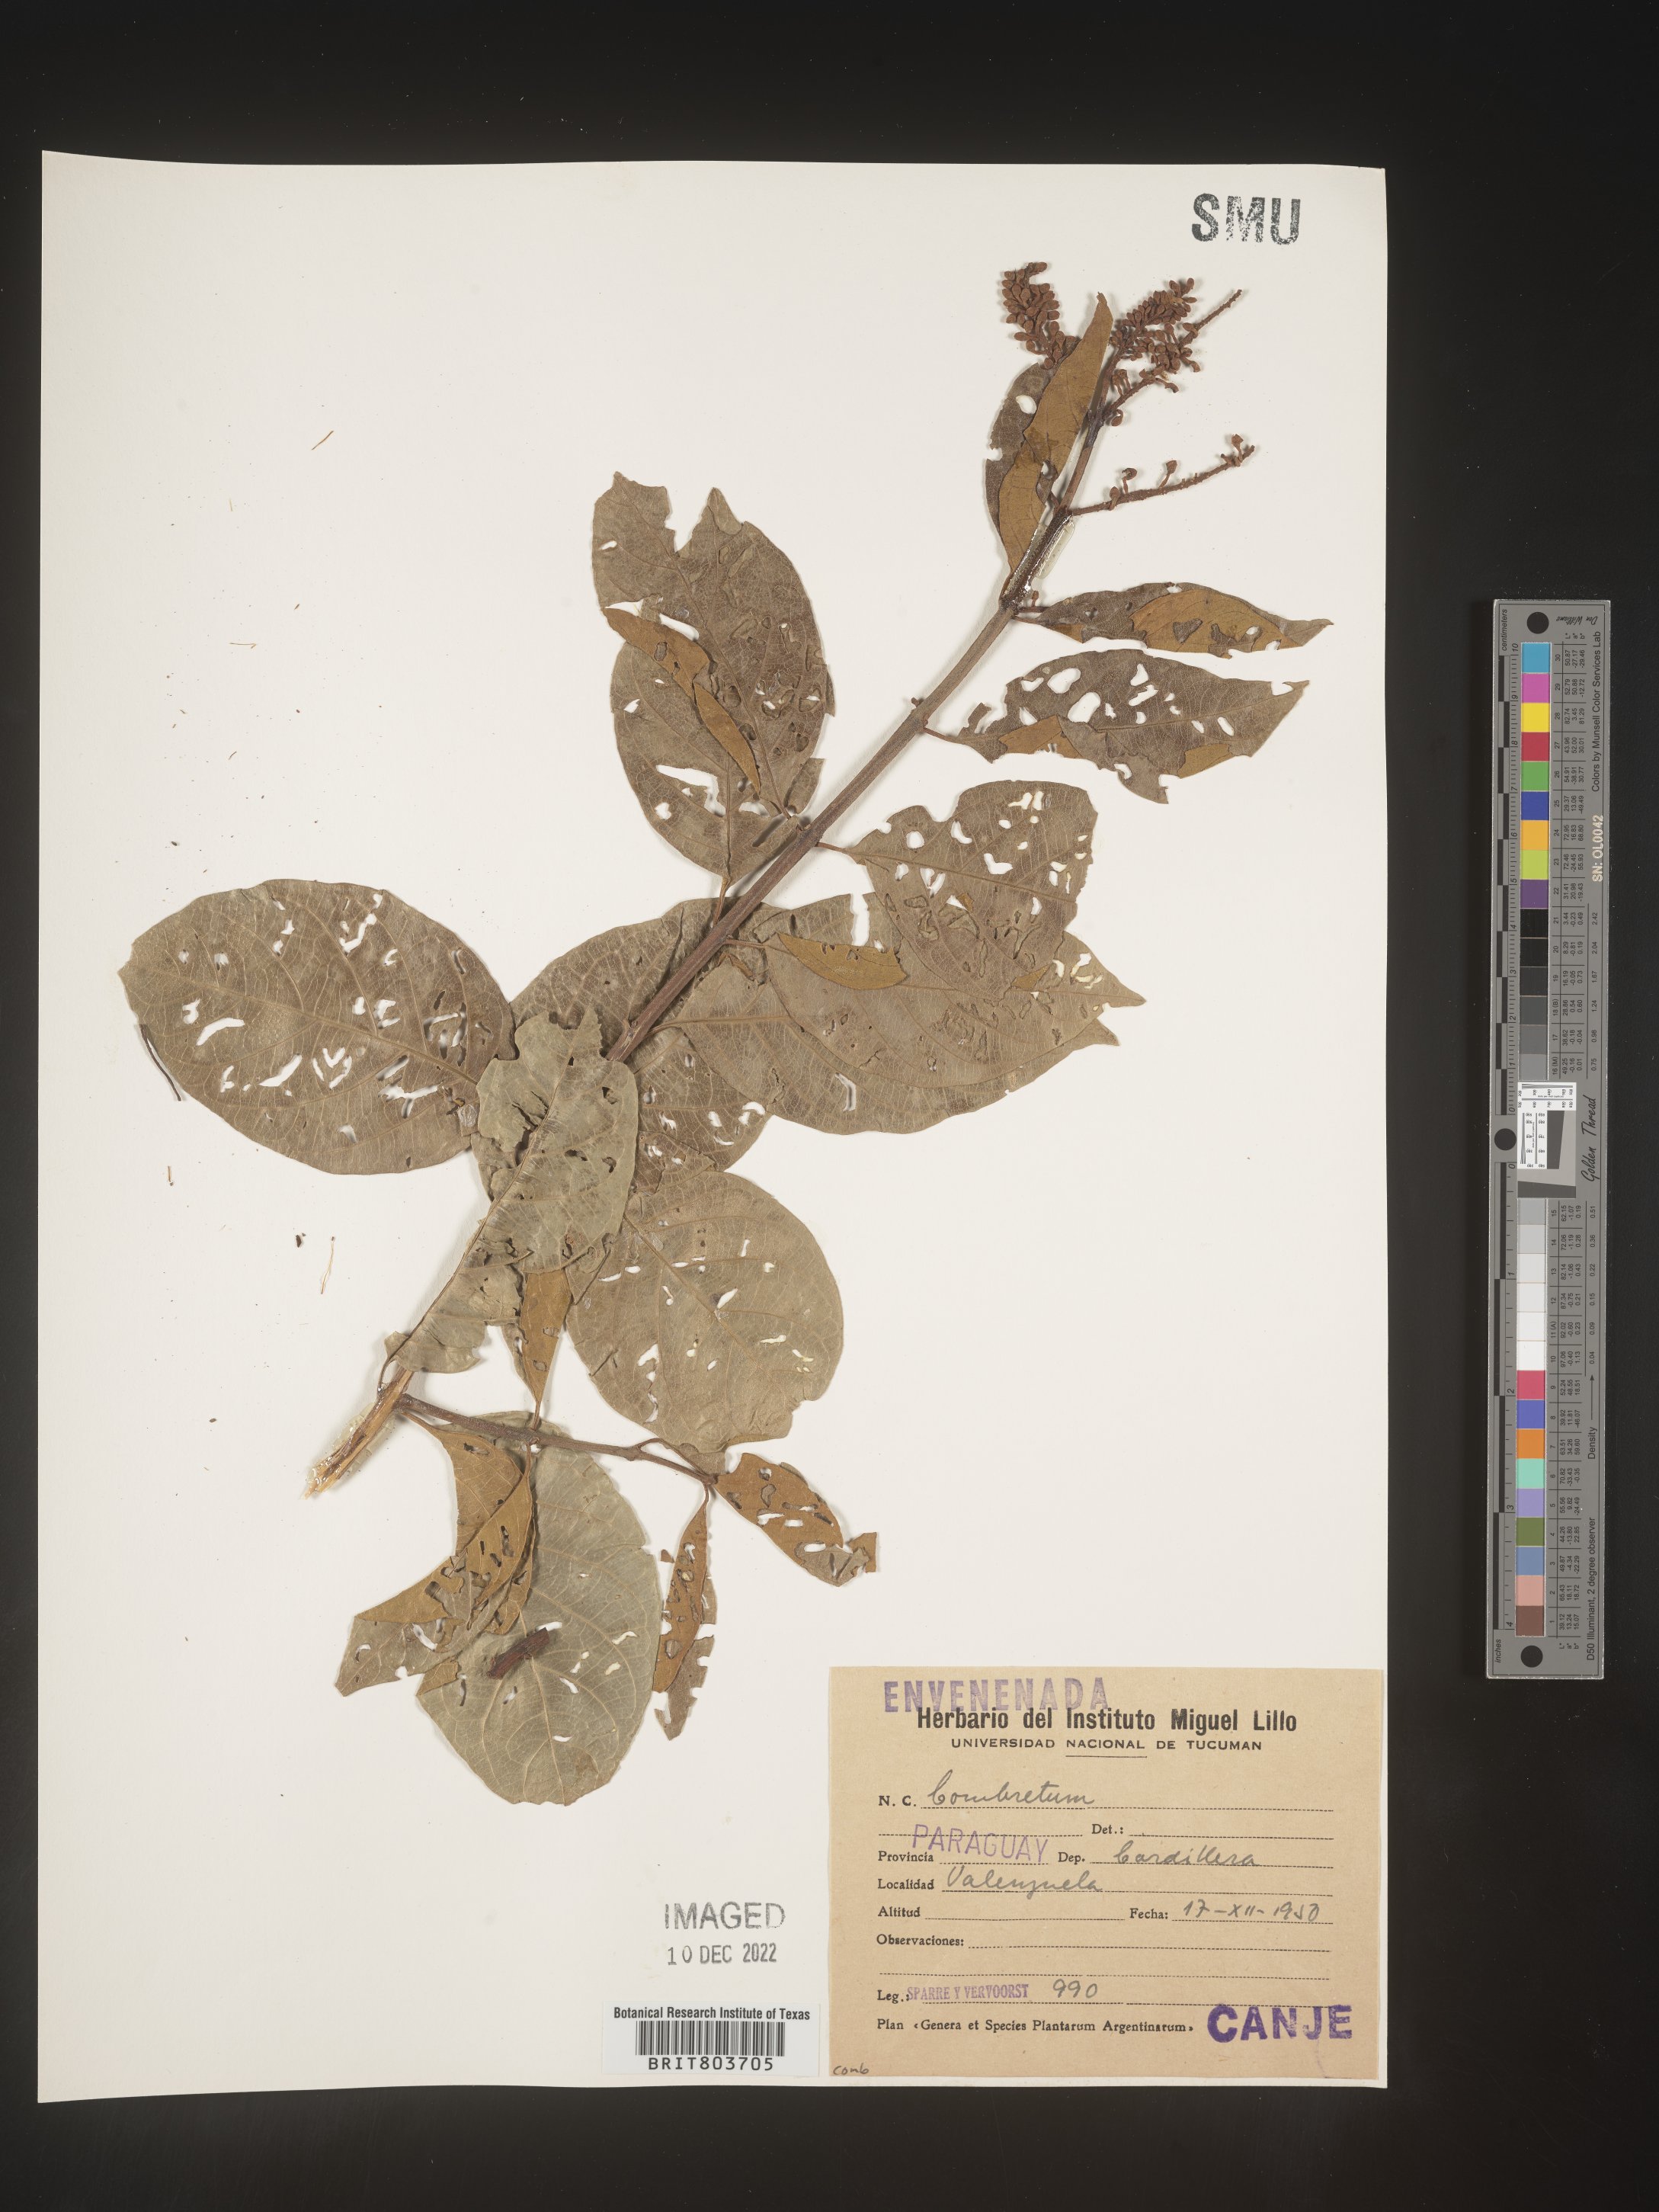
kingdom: Plantae
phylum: Tracheophyta
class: Magnoliopsida
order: Myrtales
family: Combretaceae
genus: Combretum
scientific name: Combretum
